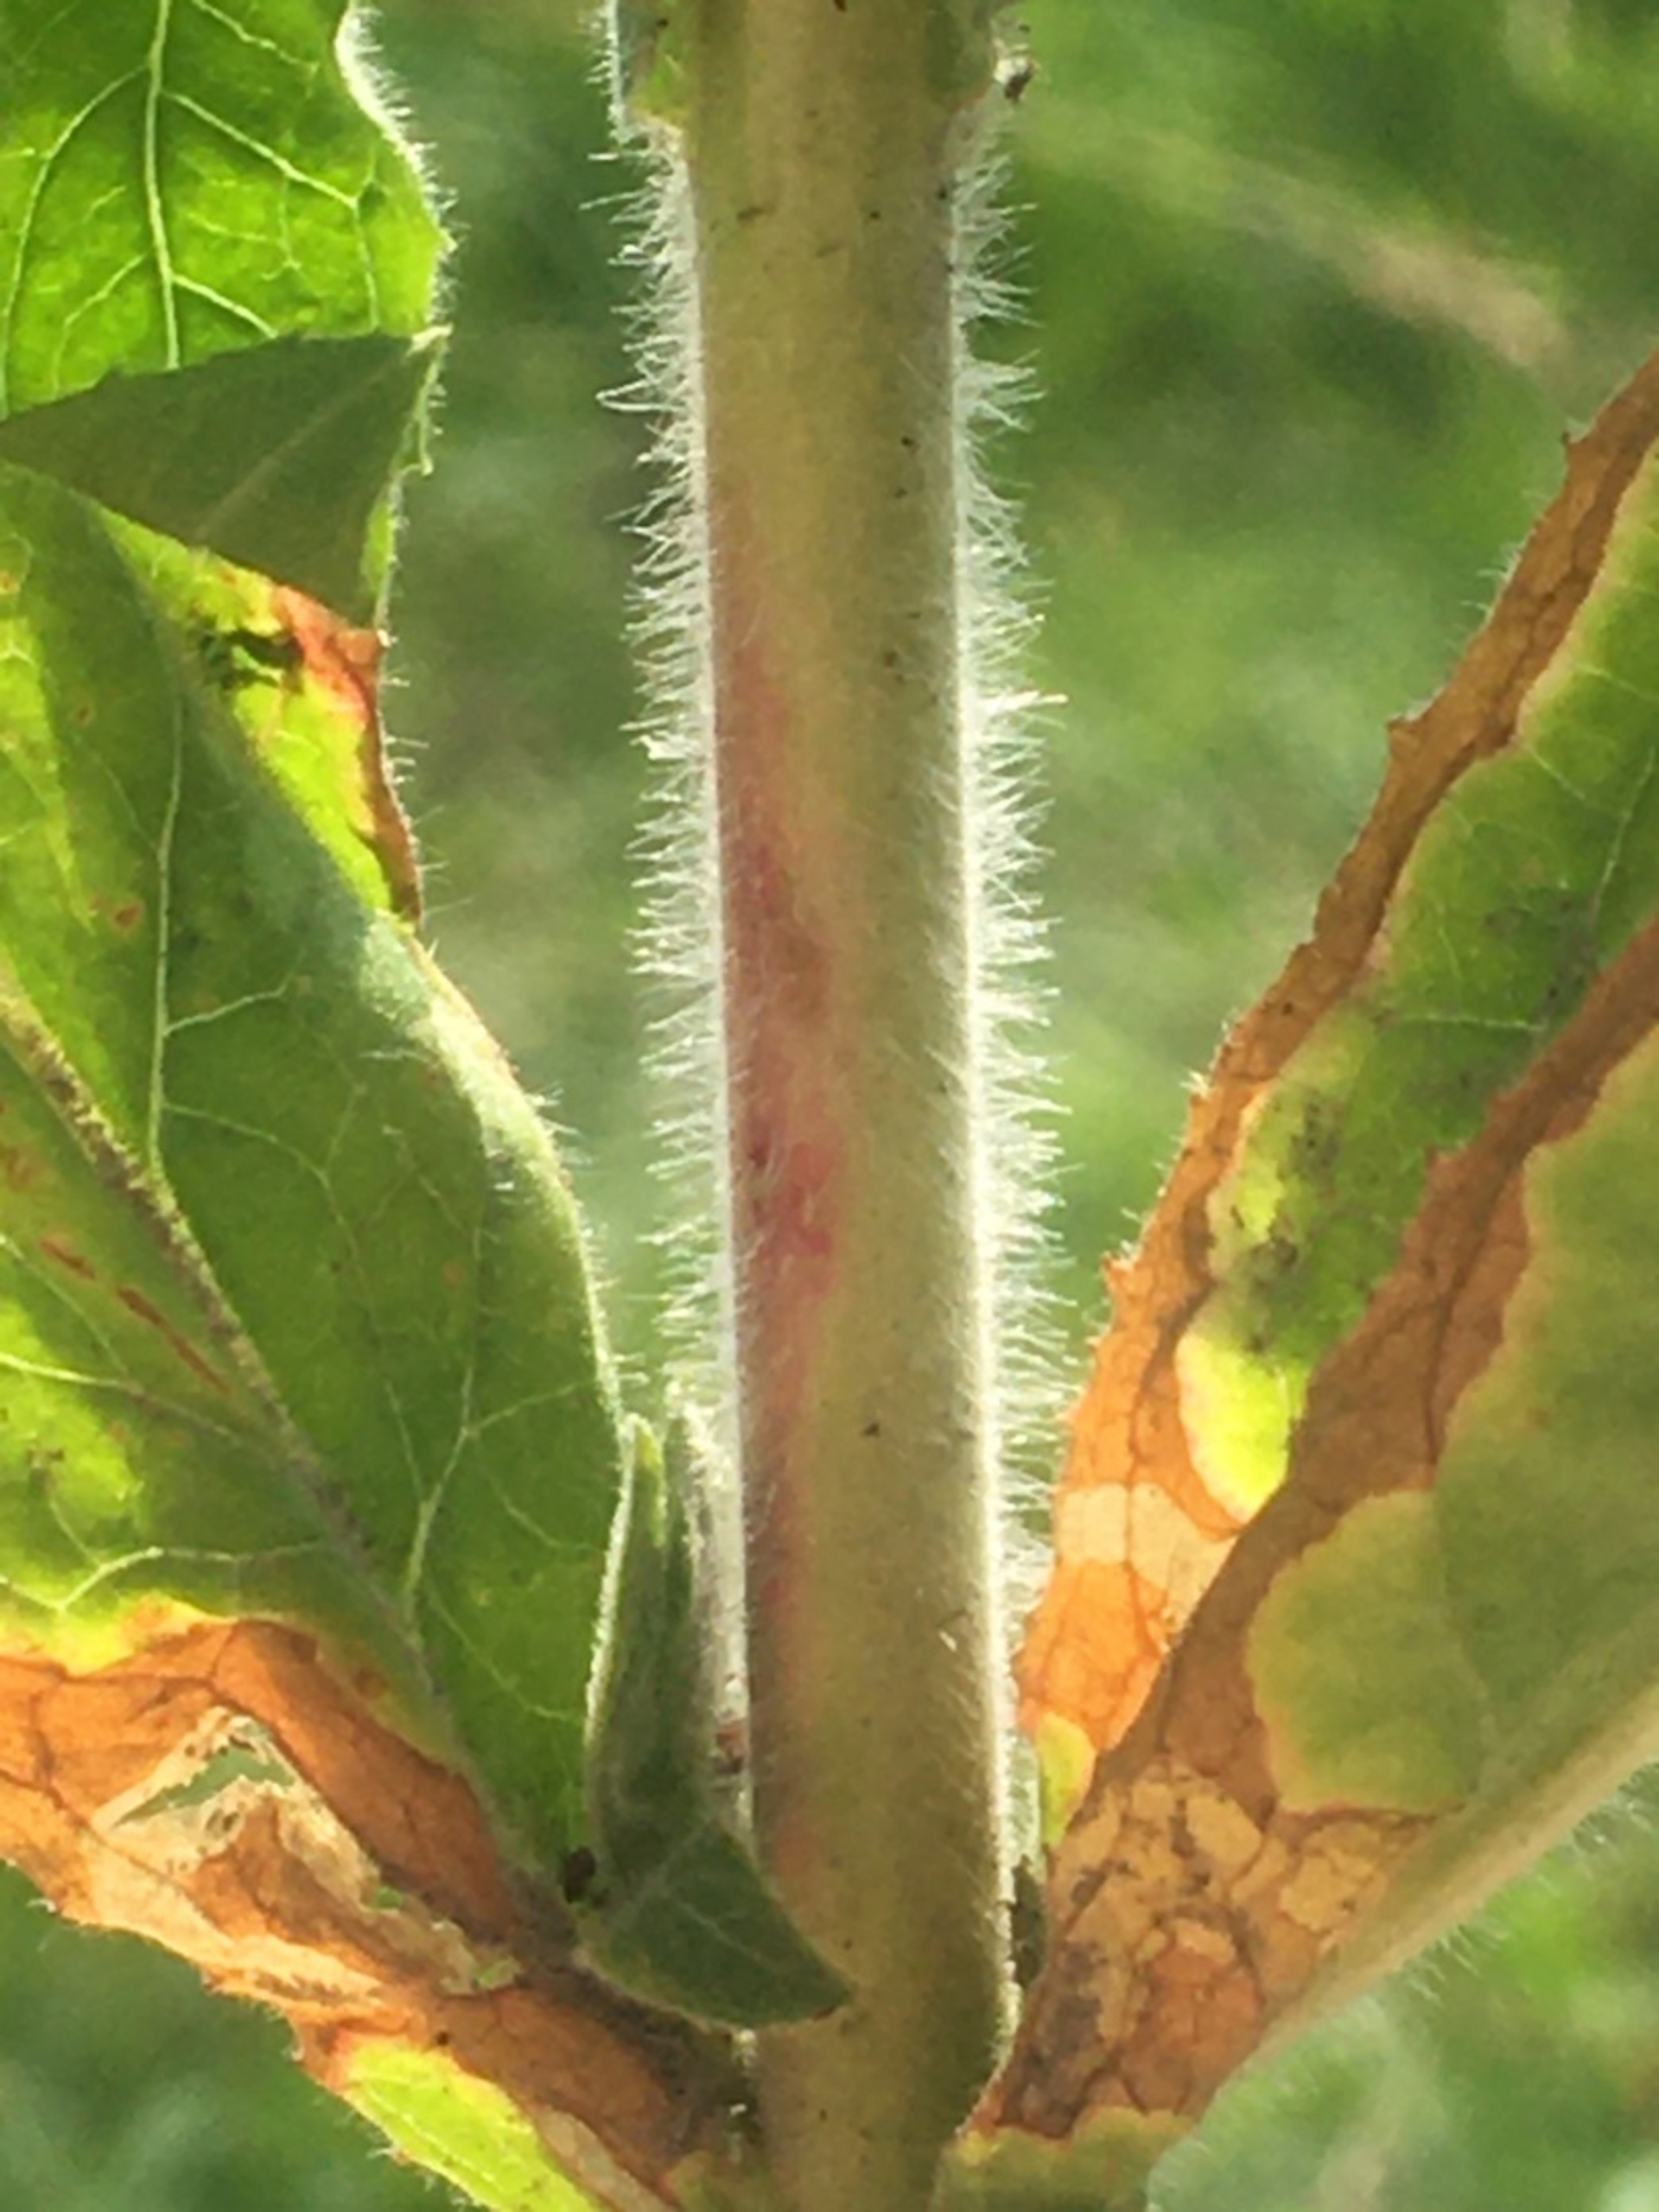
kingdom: Plantae
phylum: Tracheophyta
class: Magnoliopsida
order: Myrtales
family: Onagraceae
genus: Epilobium
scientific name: Epilobium hirsutum
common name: Lådden dueurt
